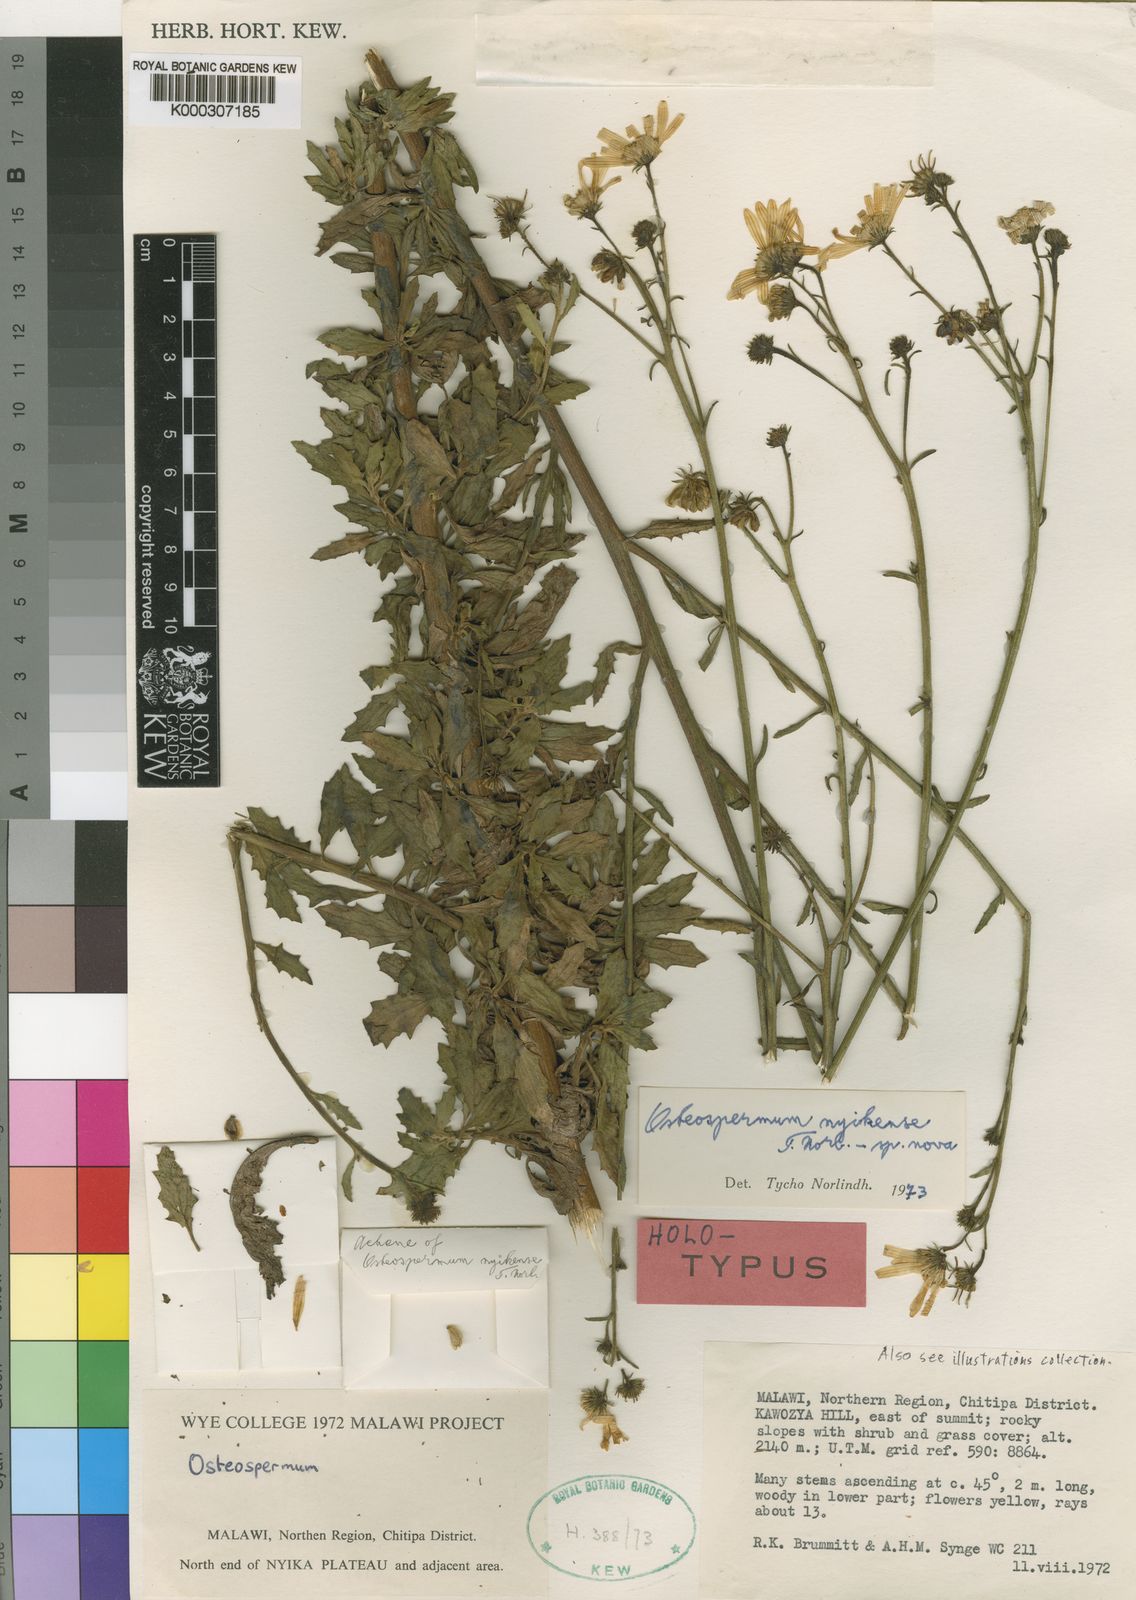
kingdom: Plantae
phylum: Tracheophyta
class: Magnoliopsida
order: Asterales
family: Asteraceae
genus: Osteospermum
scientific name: Osteospermum nyikense
